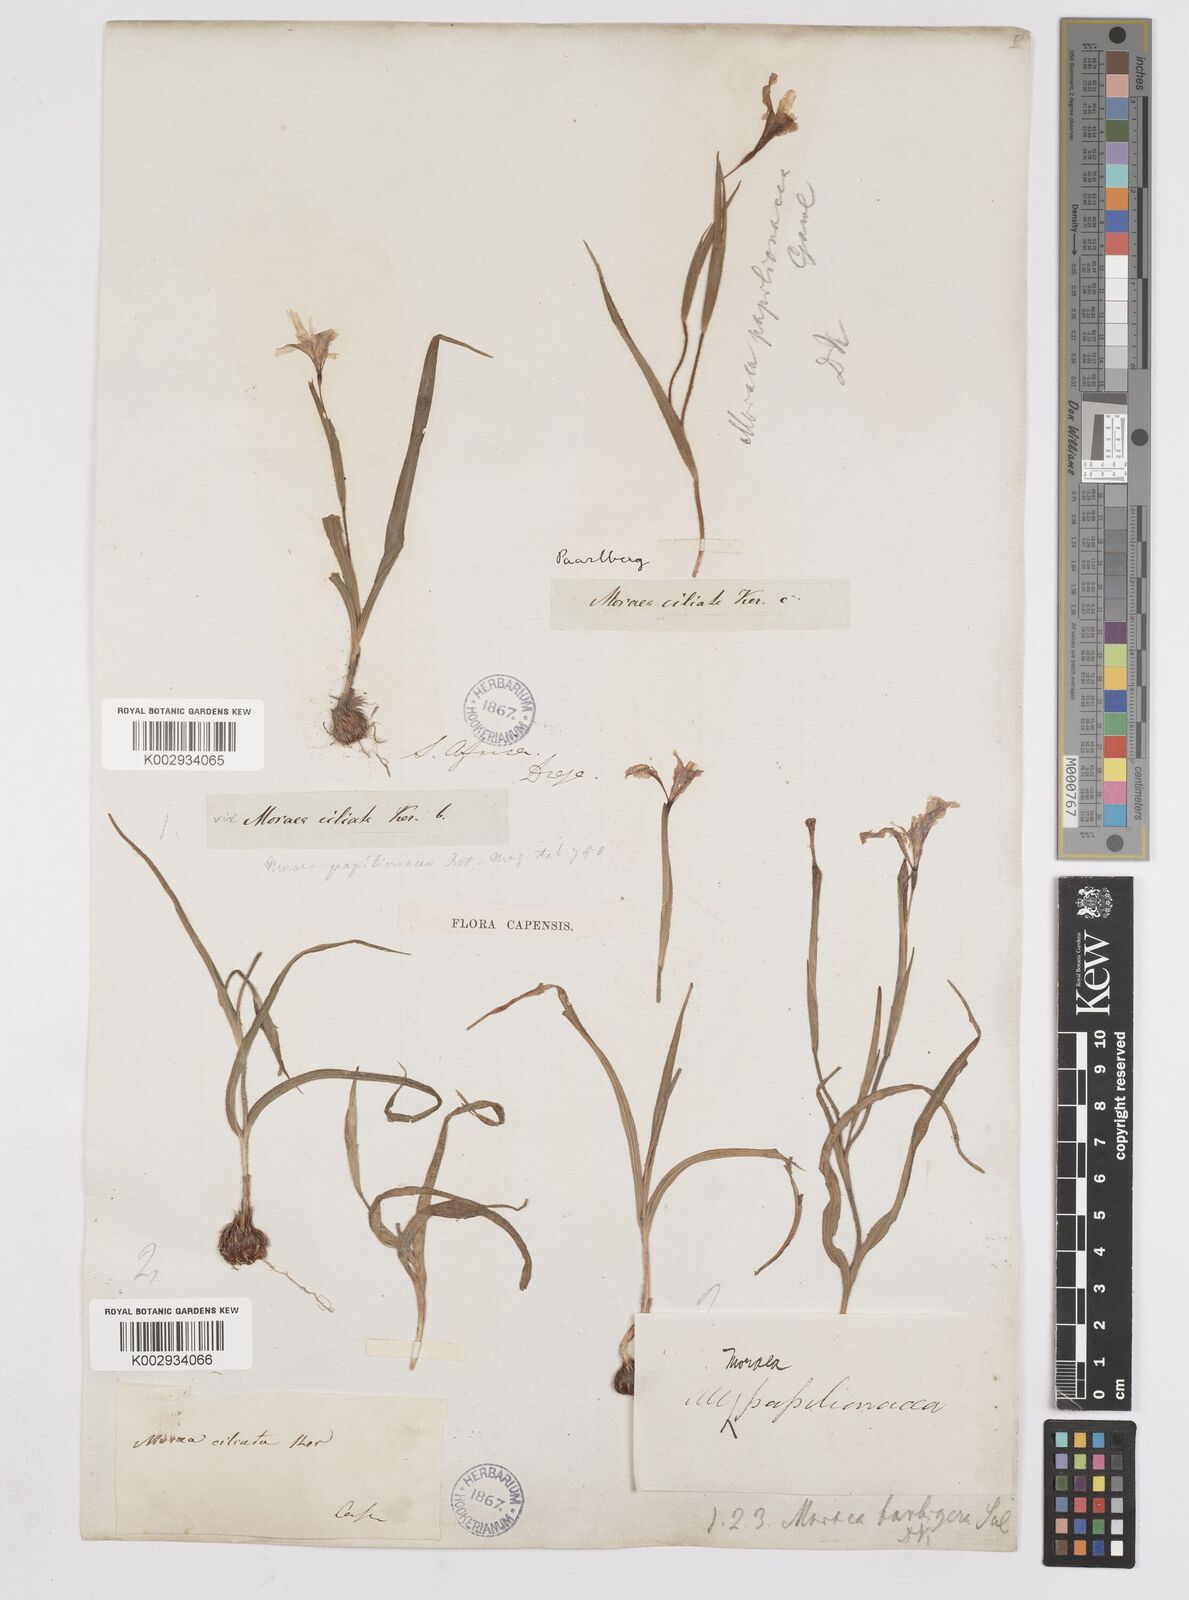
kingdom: Plantae
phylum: Tracheophyta
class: Liliopsida
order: Asparagales
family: Iridaceae
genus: Moraea
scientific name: Moraea papilionacea
